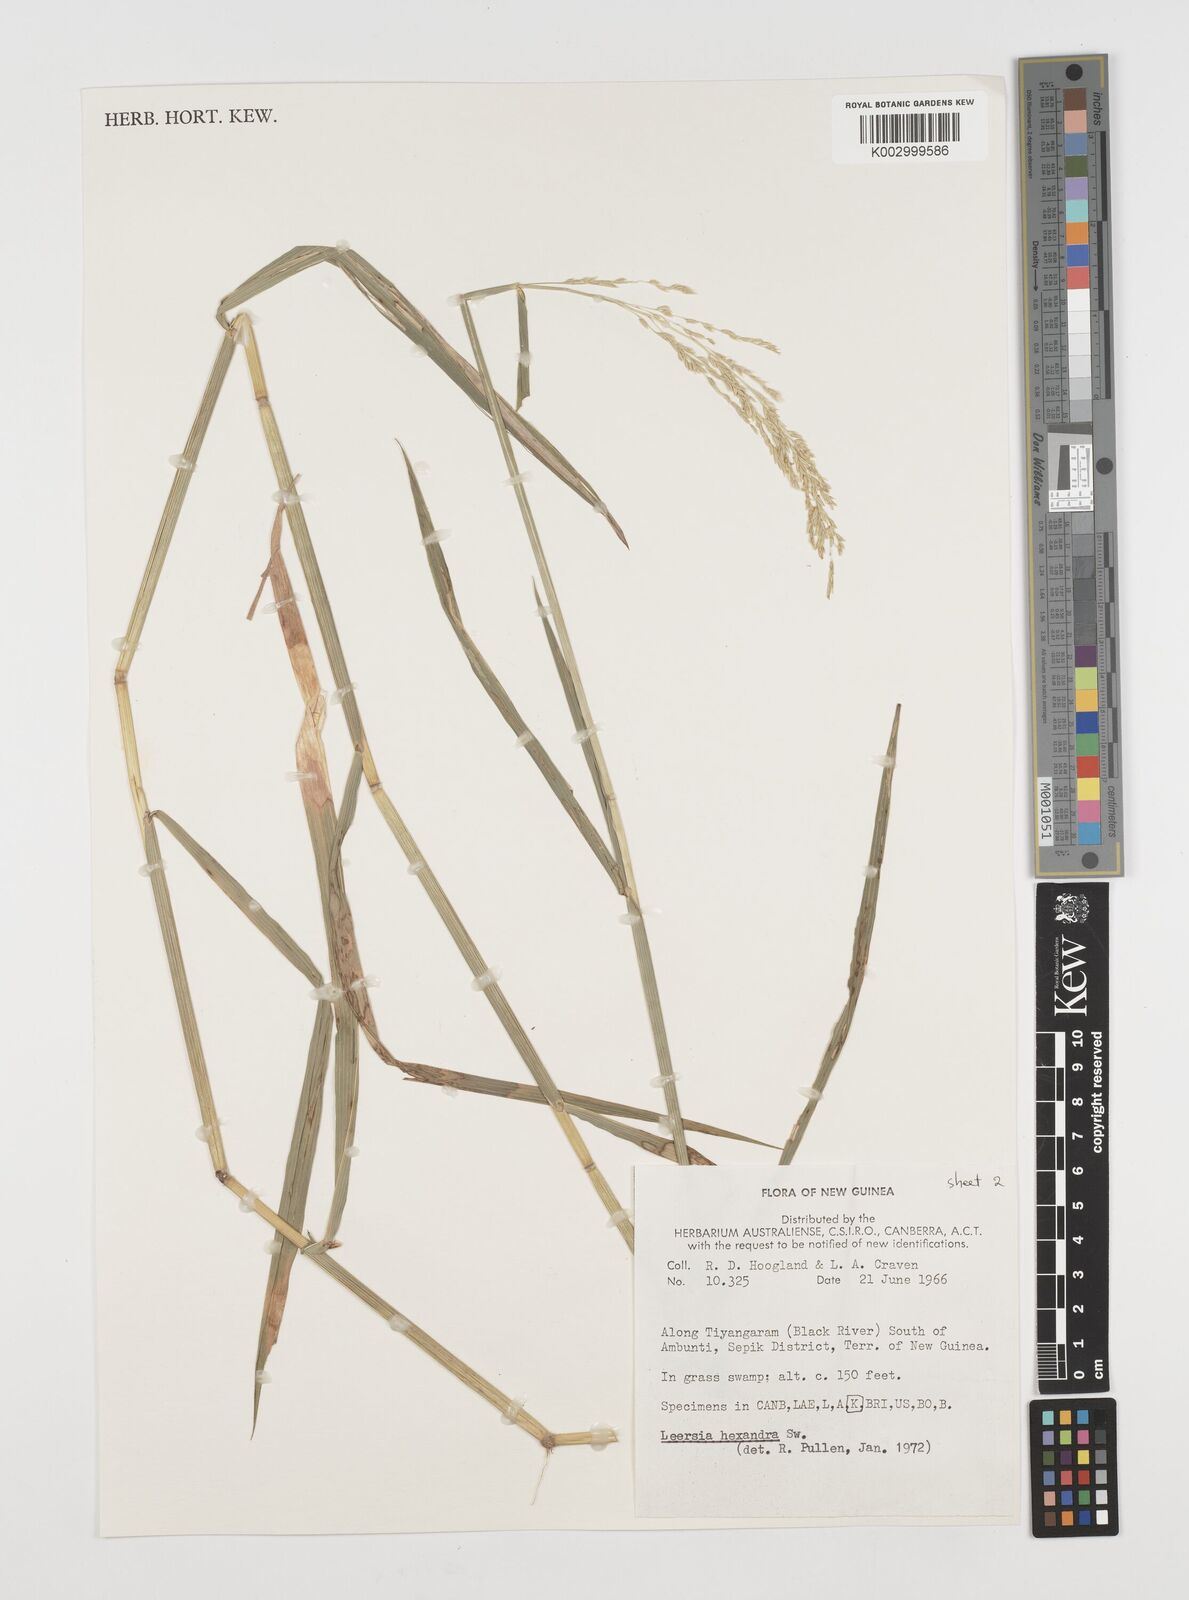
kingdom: Plantae
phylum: Tracheophyta
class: Liliopsida
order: Poales
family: Poaceae
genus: Leersia
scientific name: Leersia hexandra
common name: Southern cut grass
